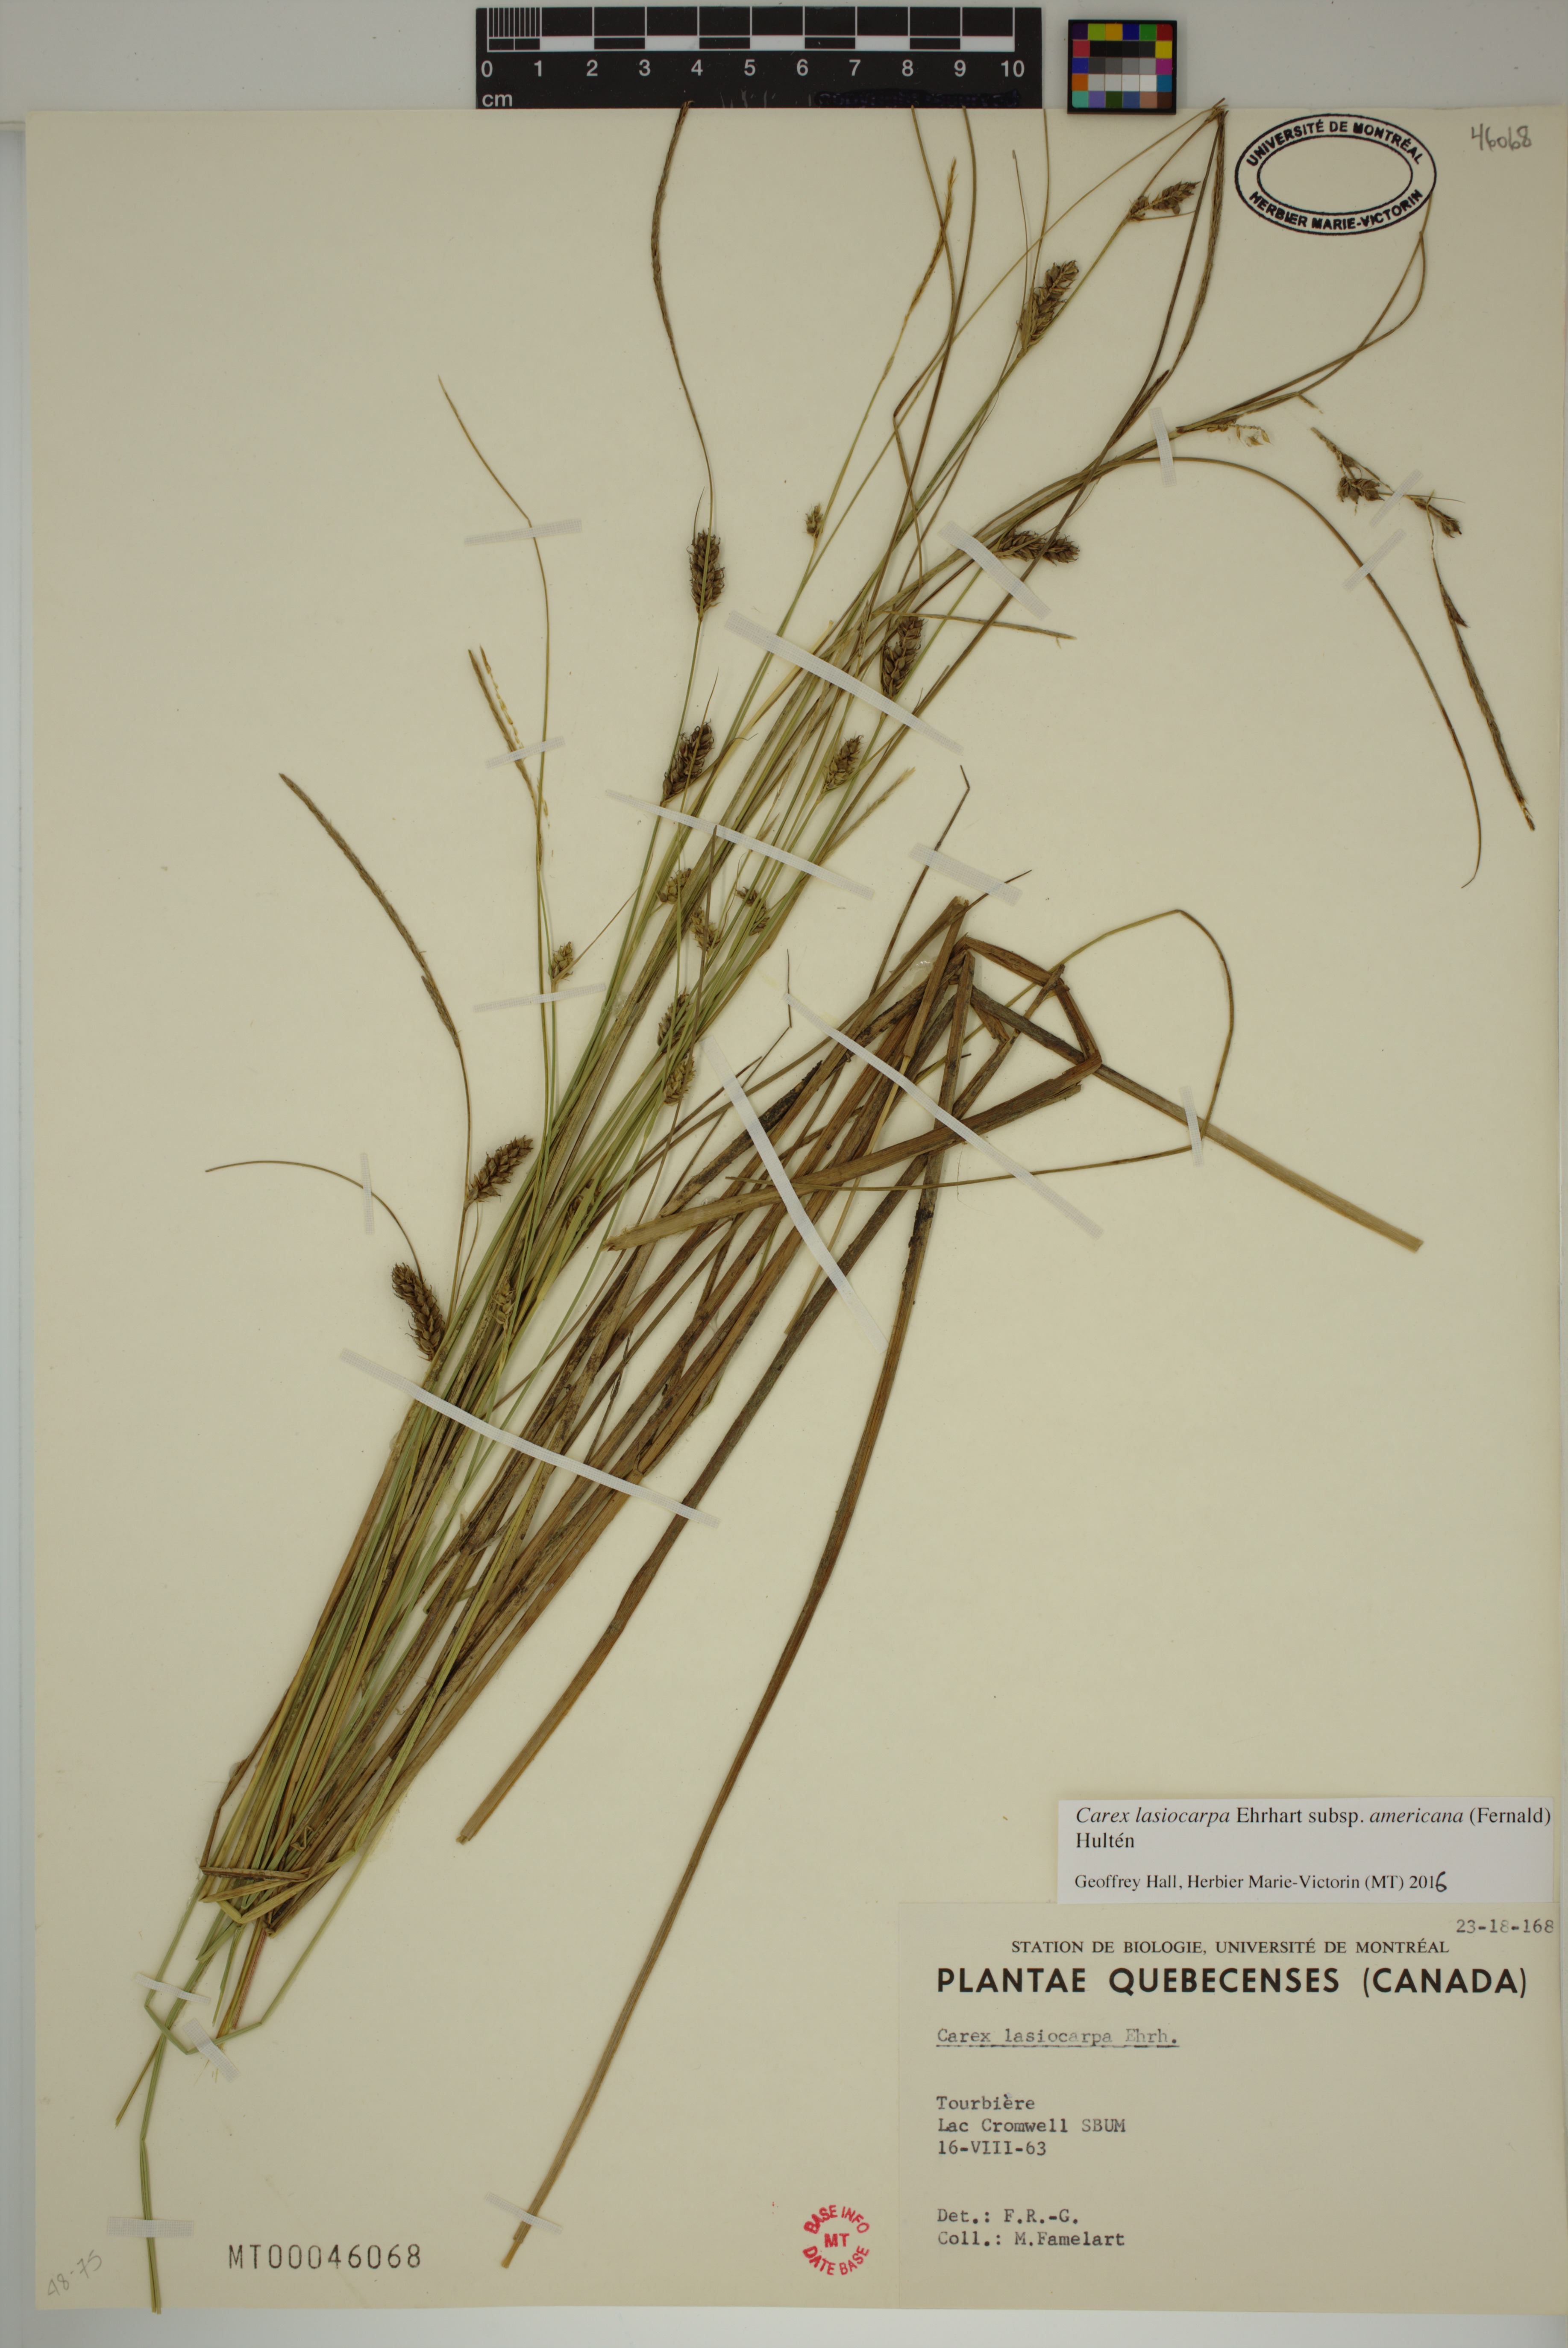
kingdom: Plantae
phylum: Tracheophyta
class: Liliopsida
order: Poales
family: Cyperaceae
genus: Carex
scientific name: Carex lasiocarpa
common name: Slender sedge
